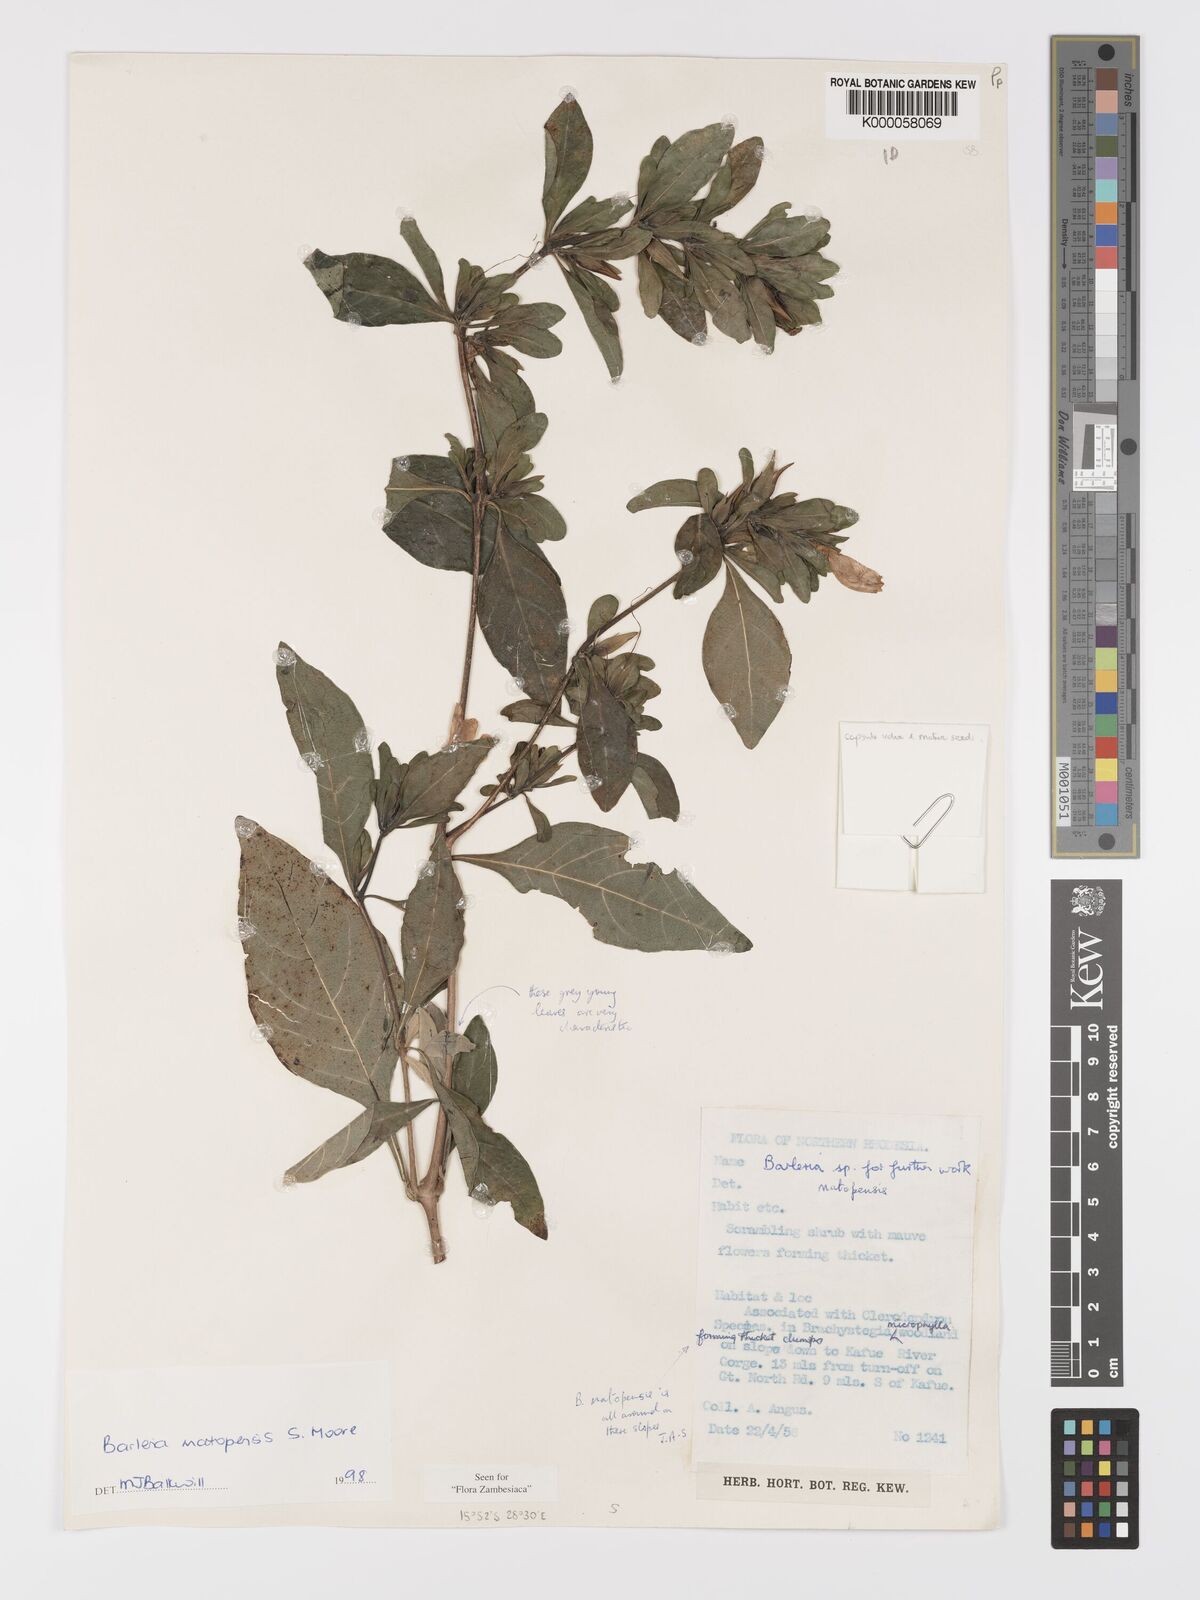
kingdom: Plantae
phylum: Tracheophyta
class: Magnoliopsida
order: Lamiales
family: Acanthaceae
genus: Barleria
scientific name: Barleria matopensis
